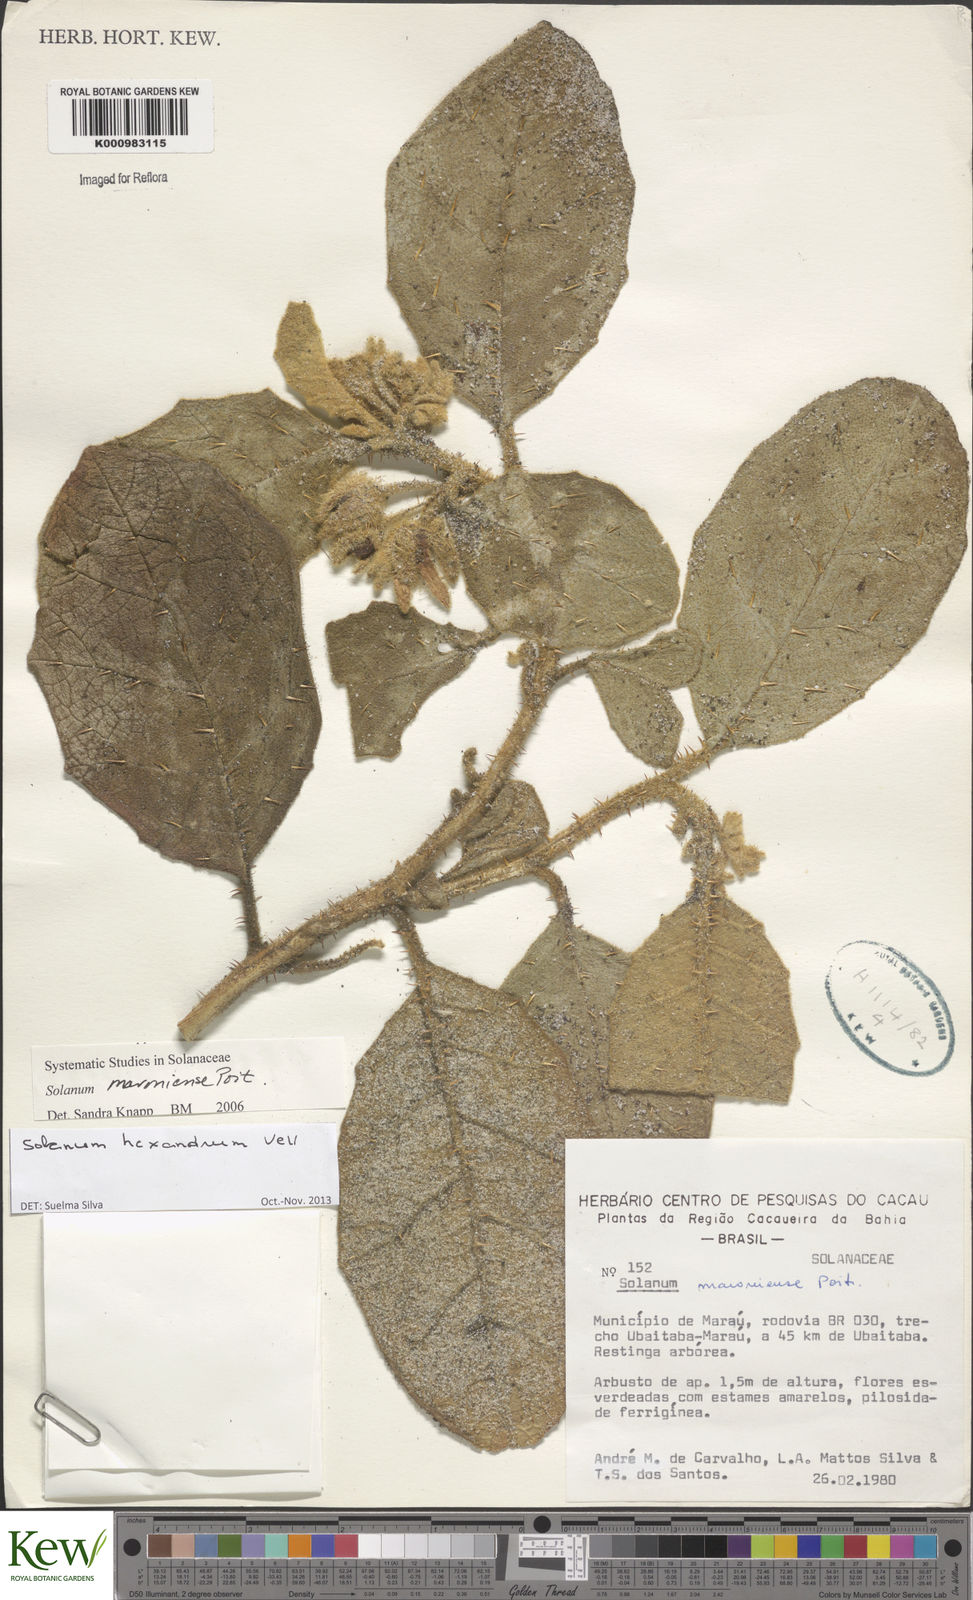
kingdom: Plantae
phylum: Tracheophyta
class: Magnoliopsida
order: Solanales
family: Solanaceae
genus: Solanum
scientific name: Solanum hexandrum
